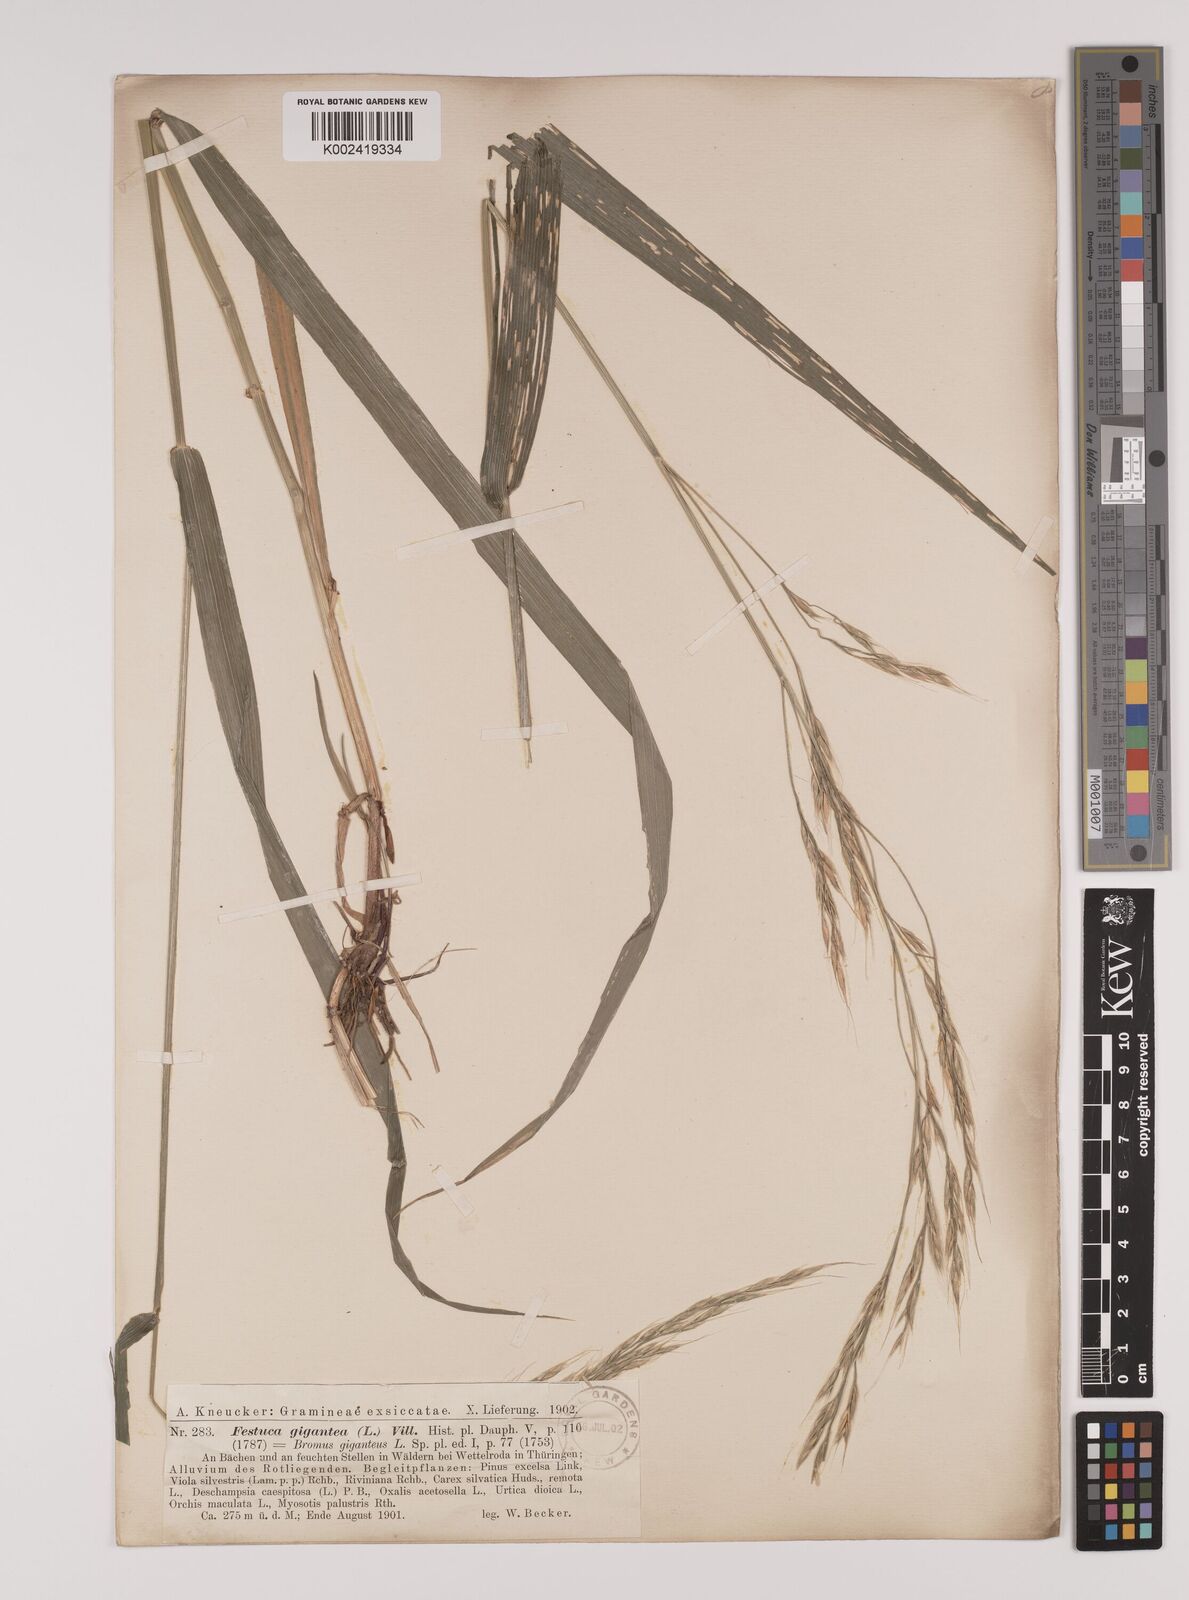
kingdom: Plantae
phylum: Tracheophyta
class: Liliopsida
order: Poales
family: Poaceae
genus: Lolium
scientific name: Lolium giganteum
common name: Giant fescue
